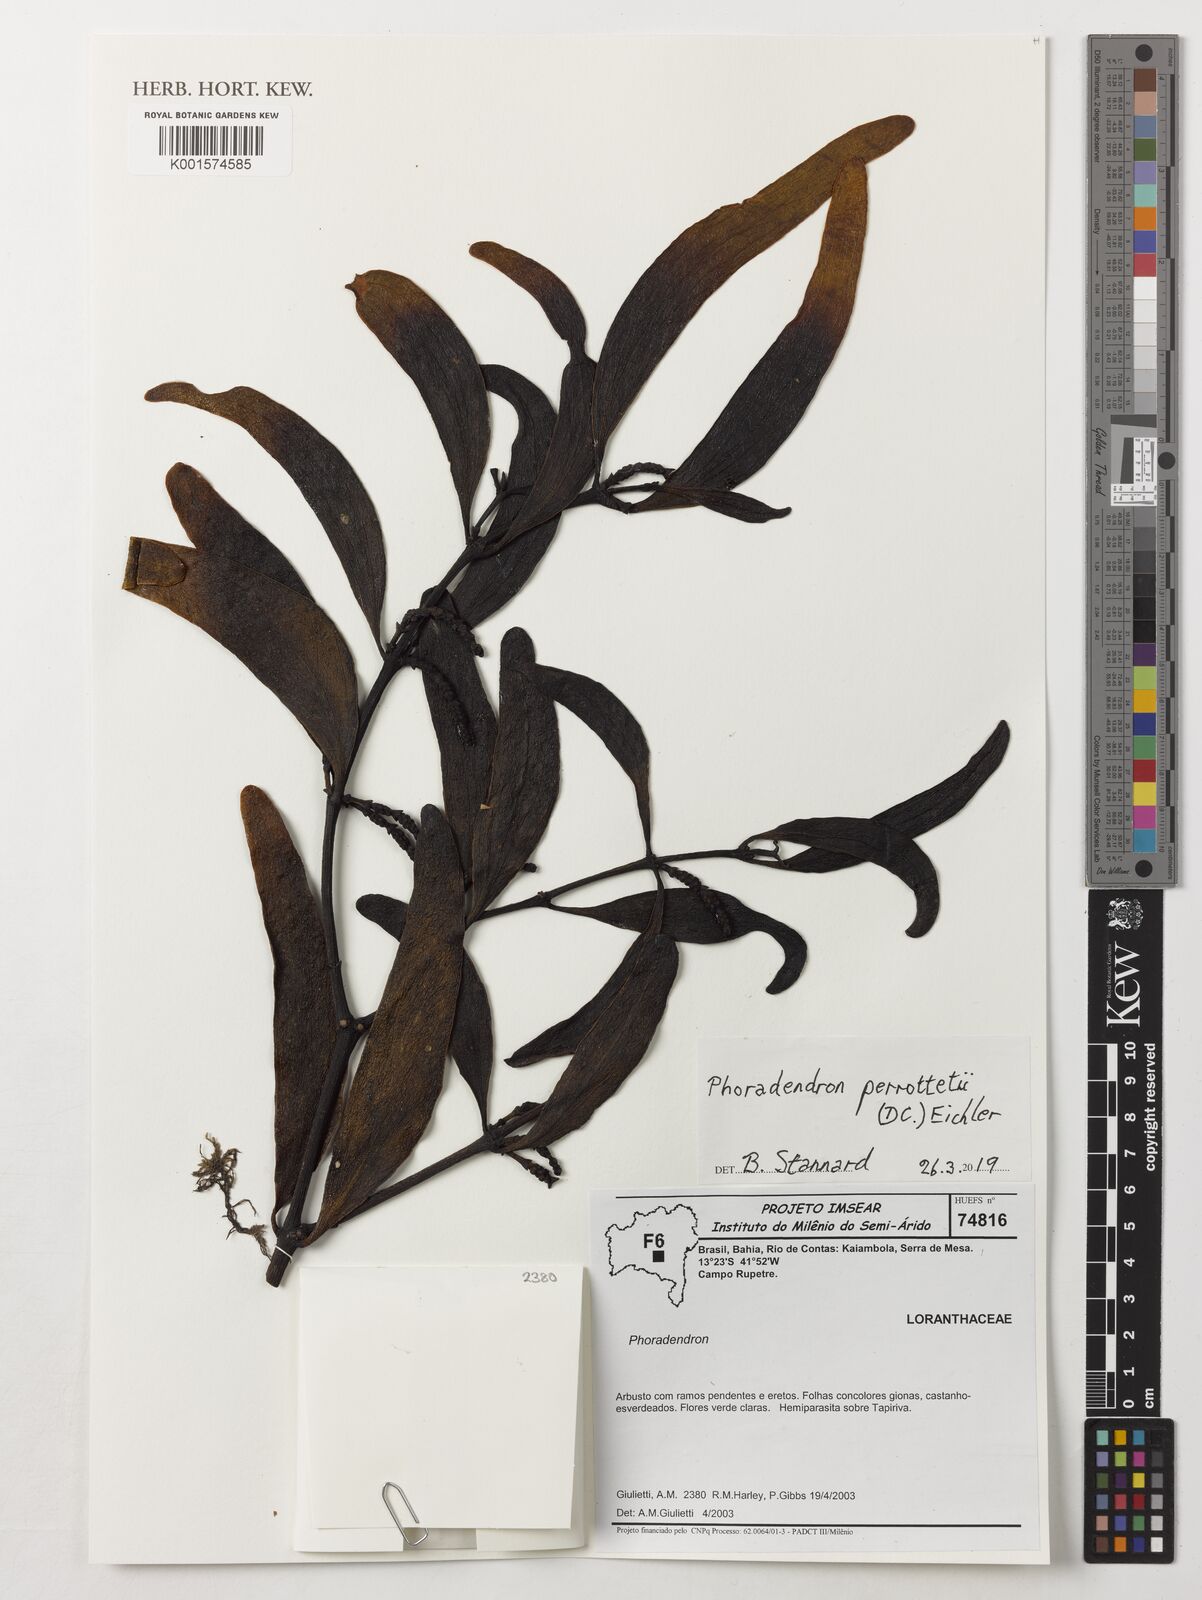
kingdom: Plantae
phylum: Tracheophyta
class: Magnoliopsida
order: Santalales
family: Viscaceae
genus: Phoradendron
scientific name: Phoradendron perrottetii
